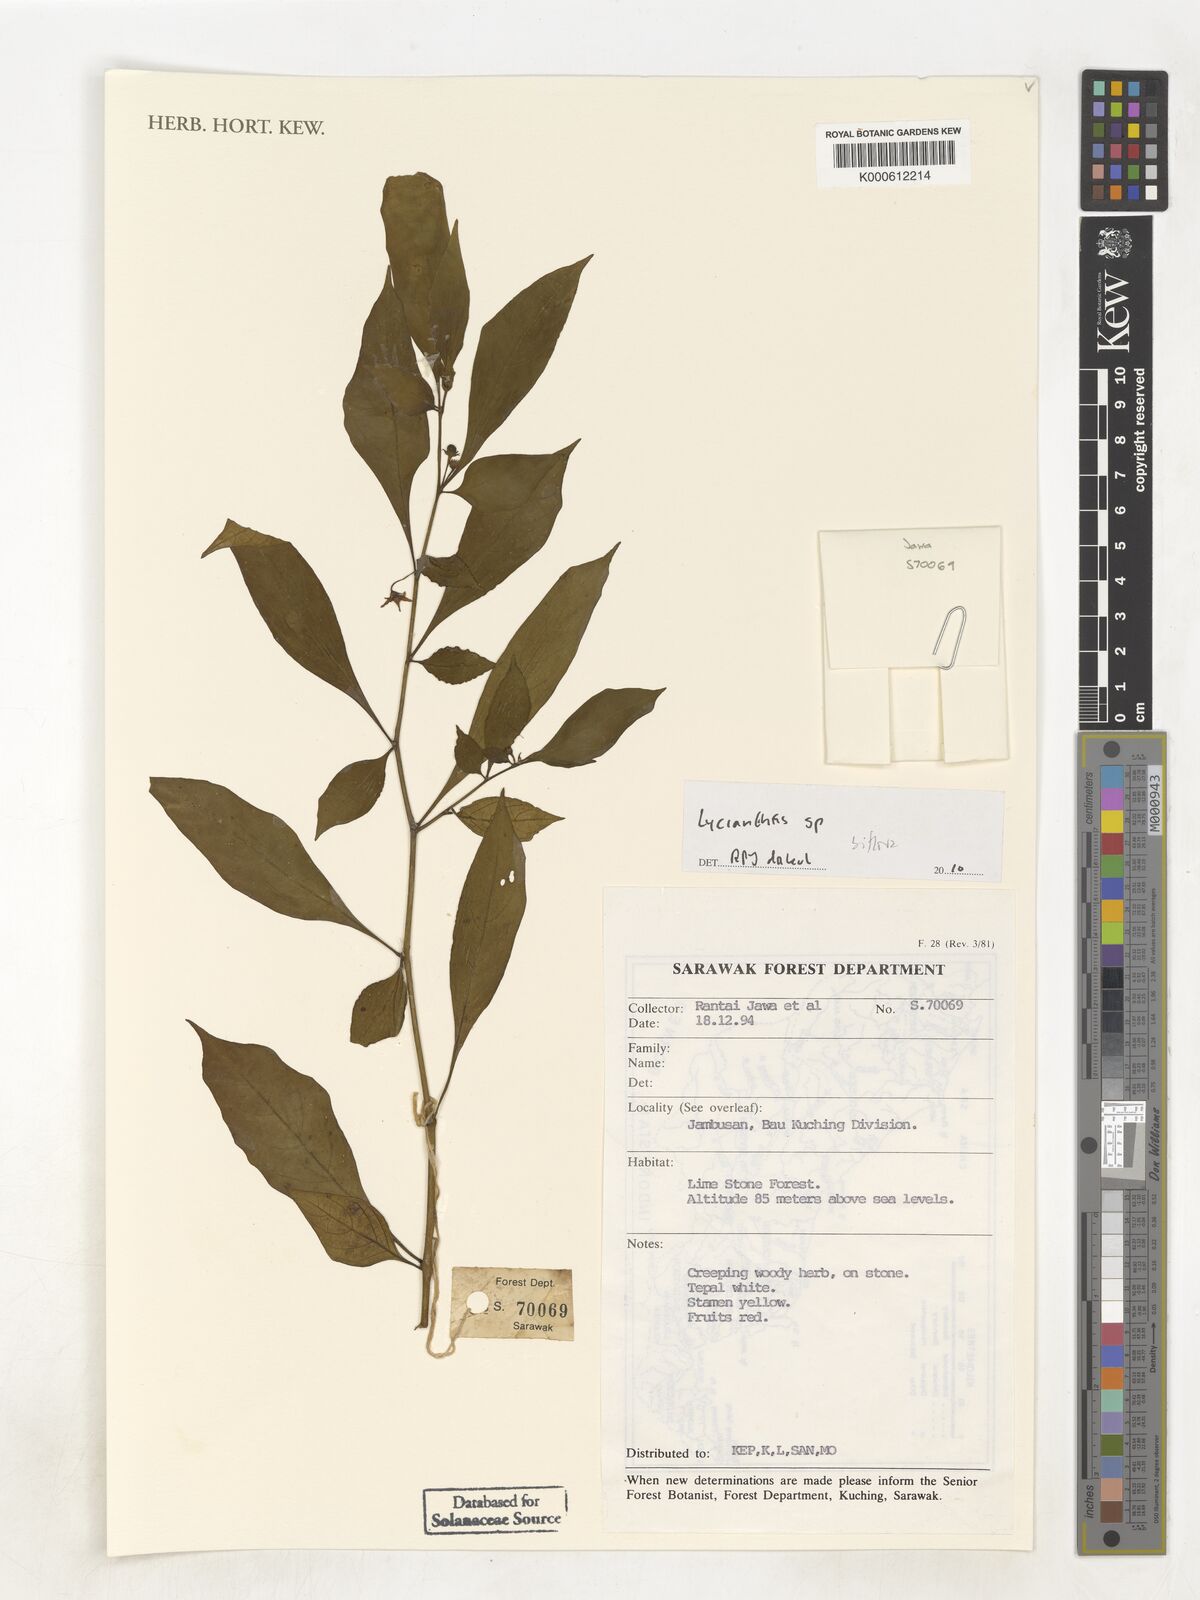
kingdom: Plantae
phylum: Tracheophyta
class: Magnoliopsida
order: Solanales
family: Solanaceae
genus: Lycianthes
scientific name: Lycianthes
